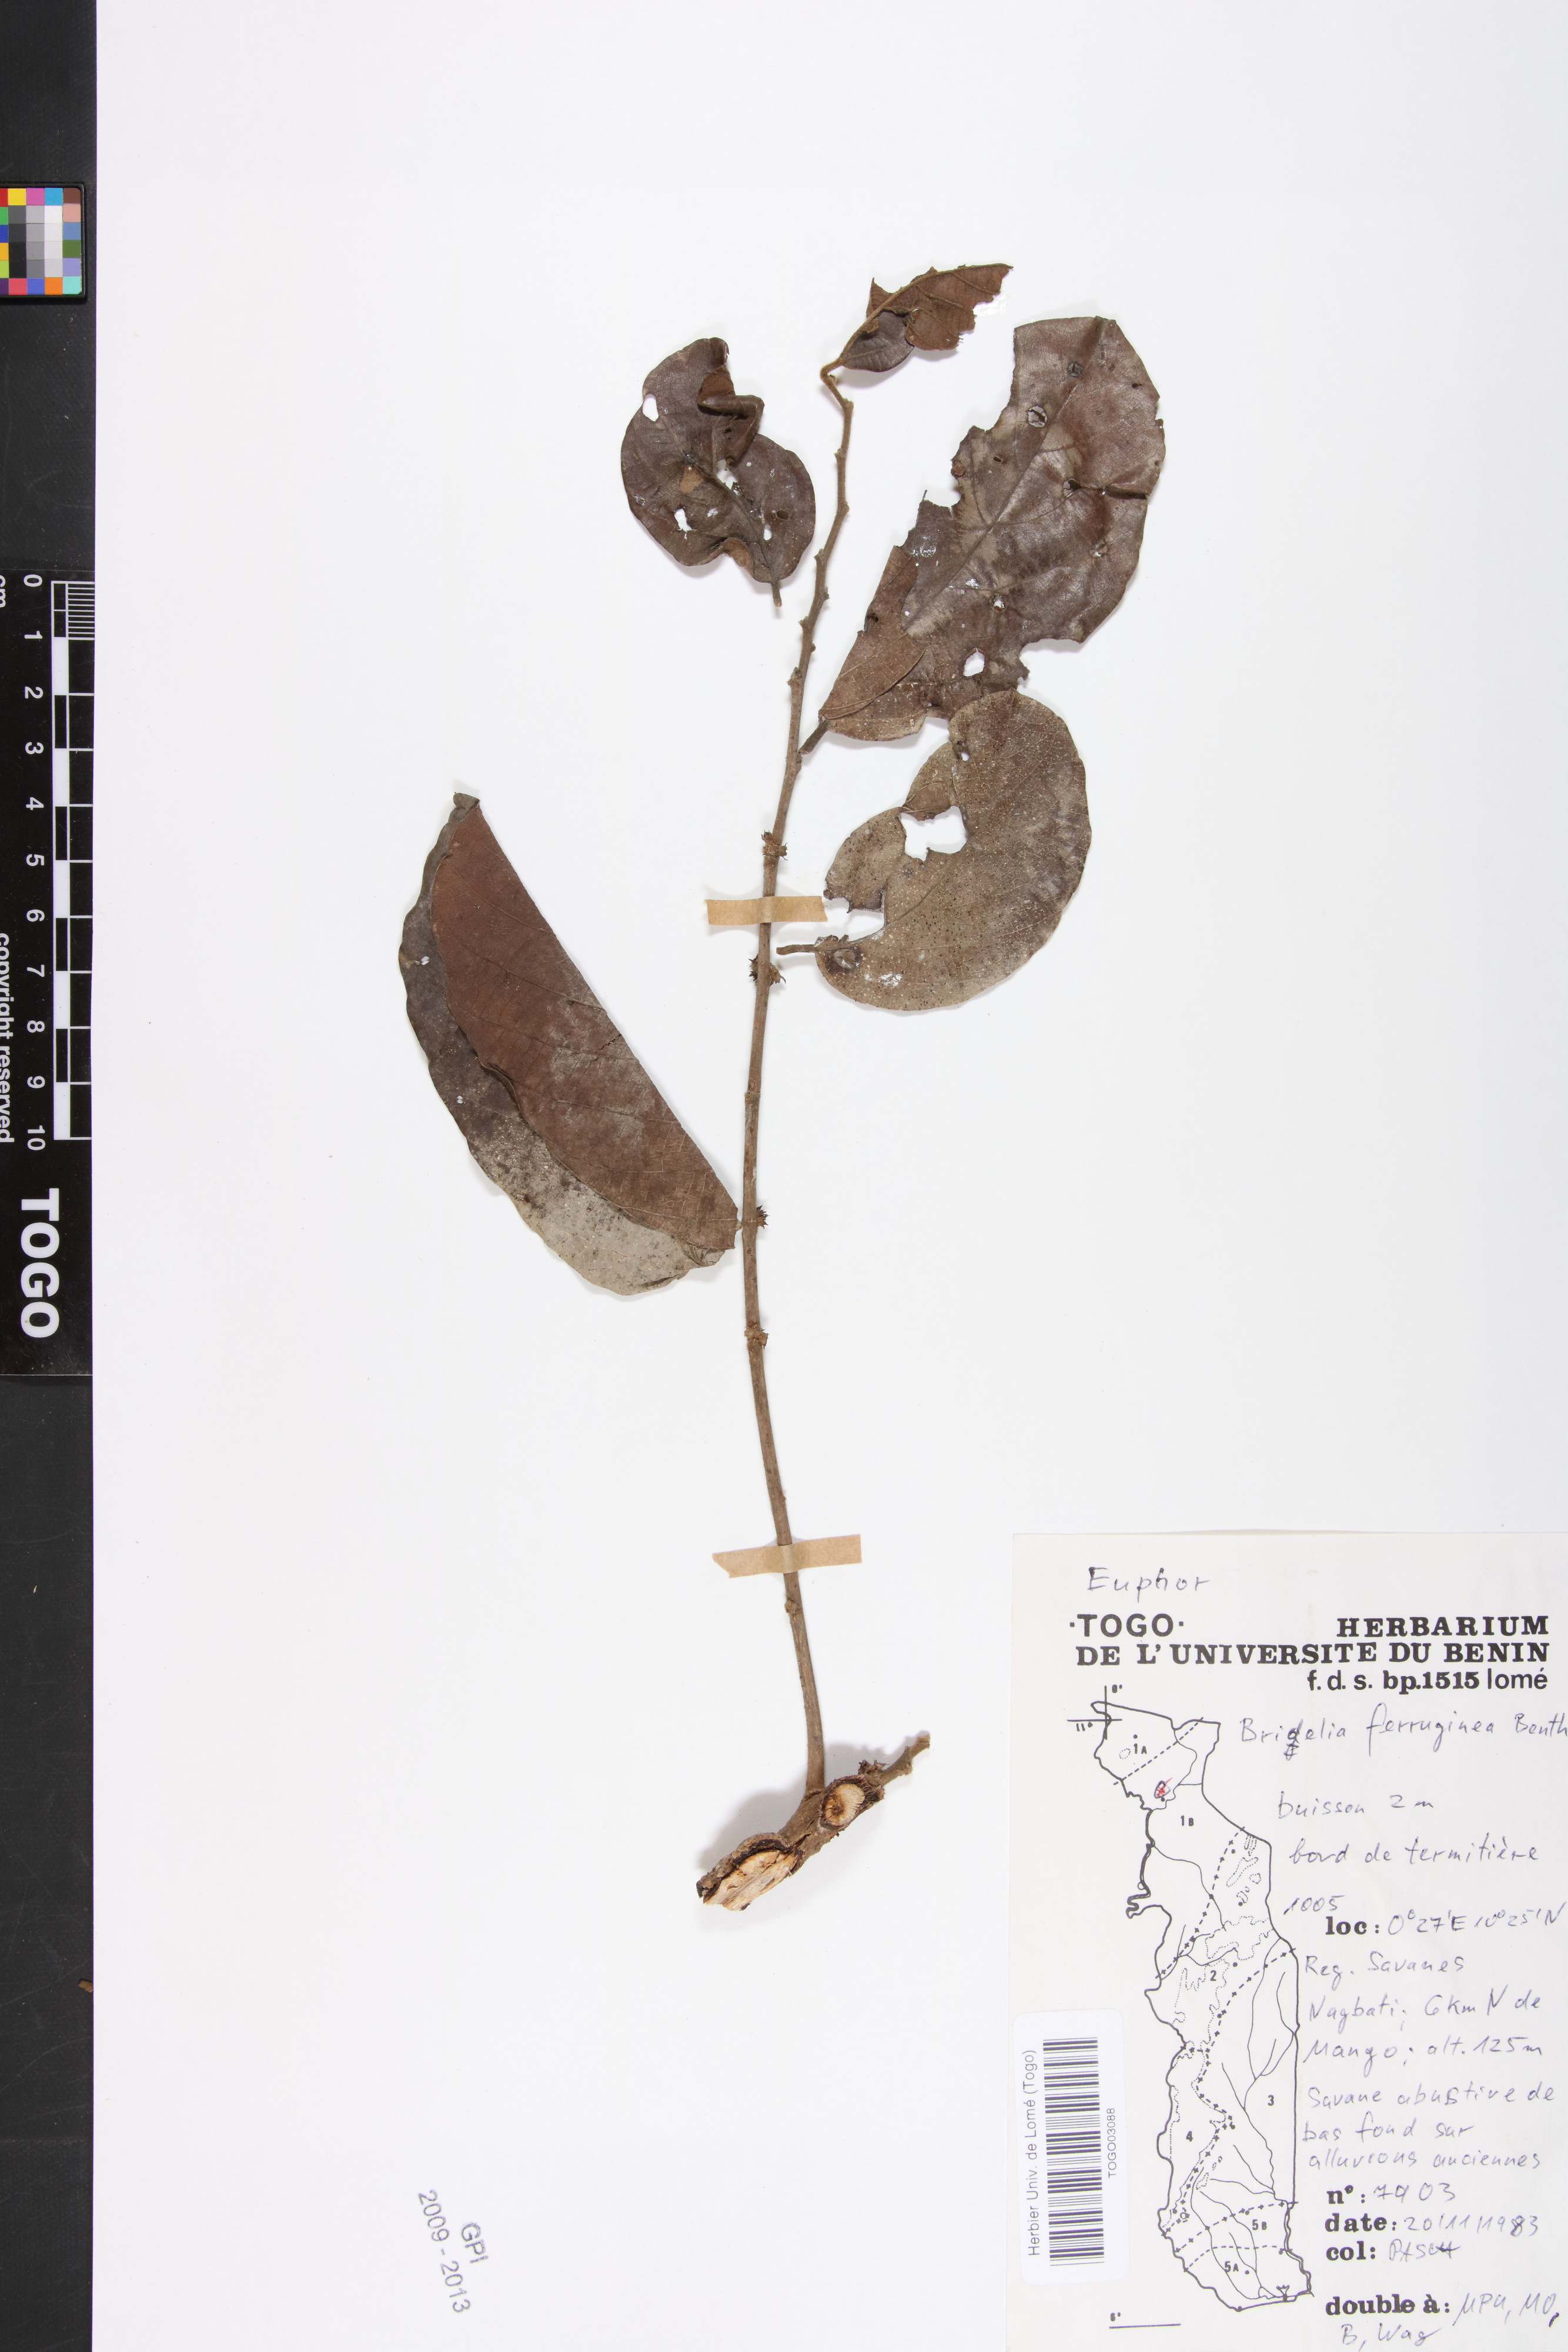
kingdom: Plantae
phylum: Tracheophyta
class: Magnoliopsida
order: Malpighiales
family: Phyllanthaceae
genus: Bridelia
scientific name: Bridelia ferruginea
